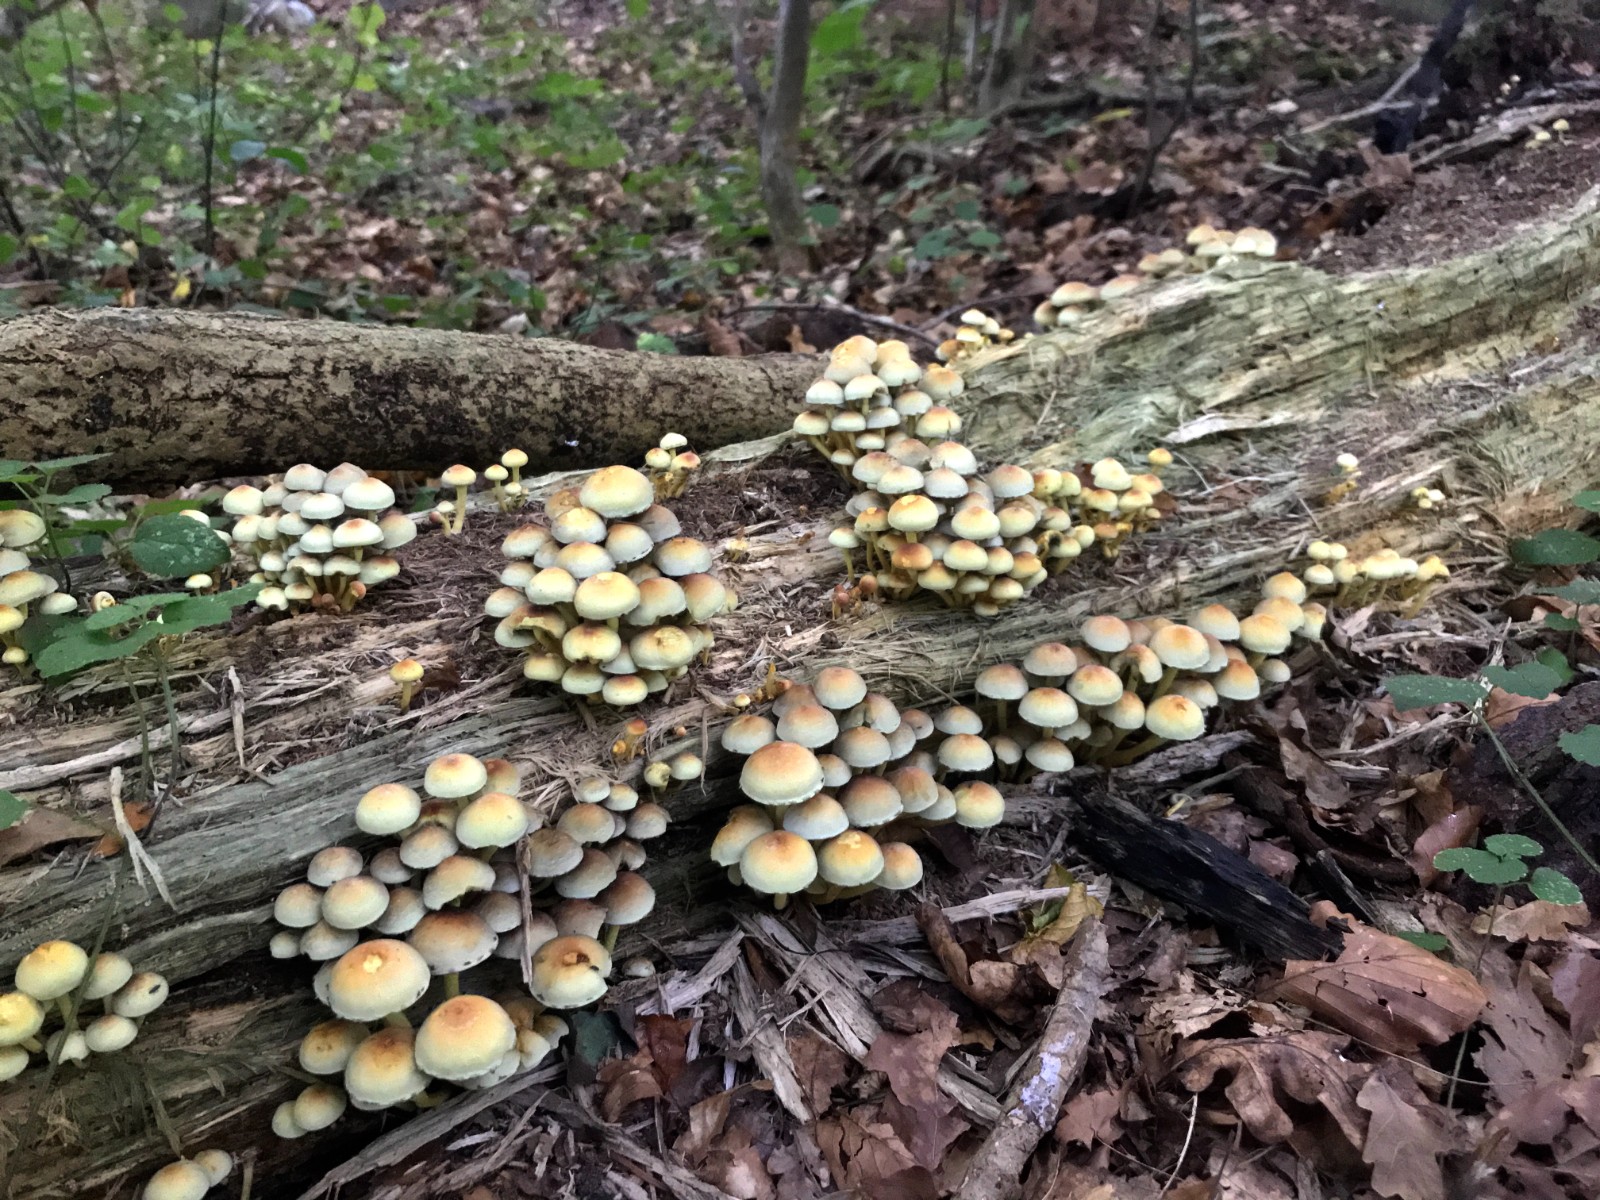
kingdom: Fungi
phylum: Basidiomycota
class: Agaricomycetes
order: Agaricales
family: Strophariaceae
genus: Hypholoma
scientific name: Hypholoma fasciculare
